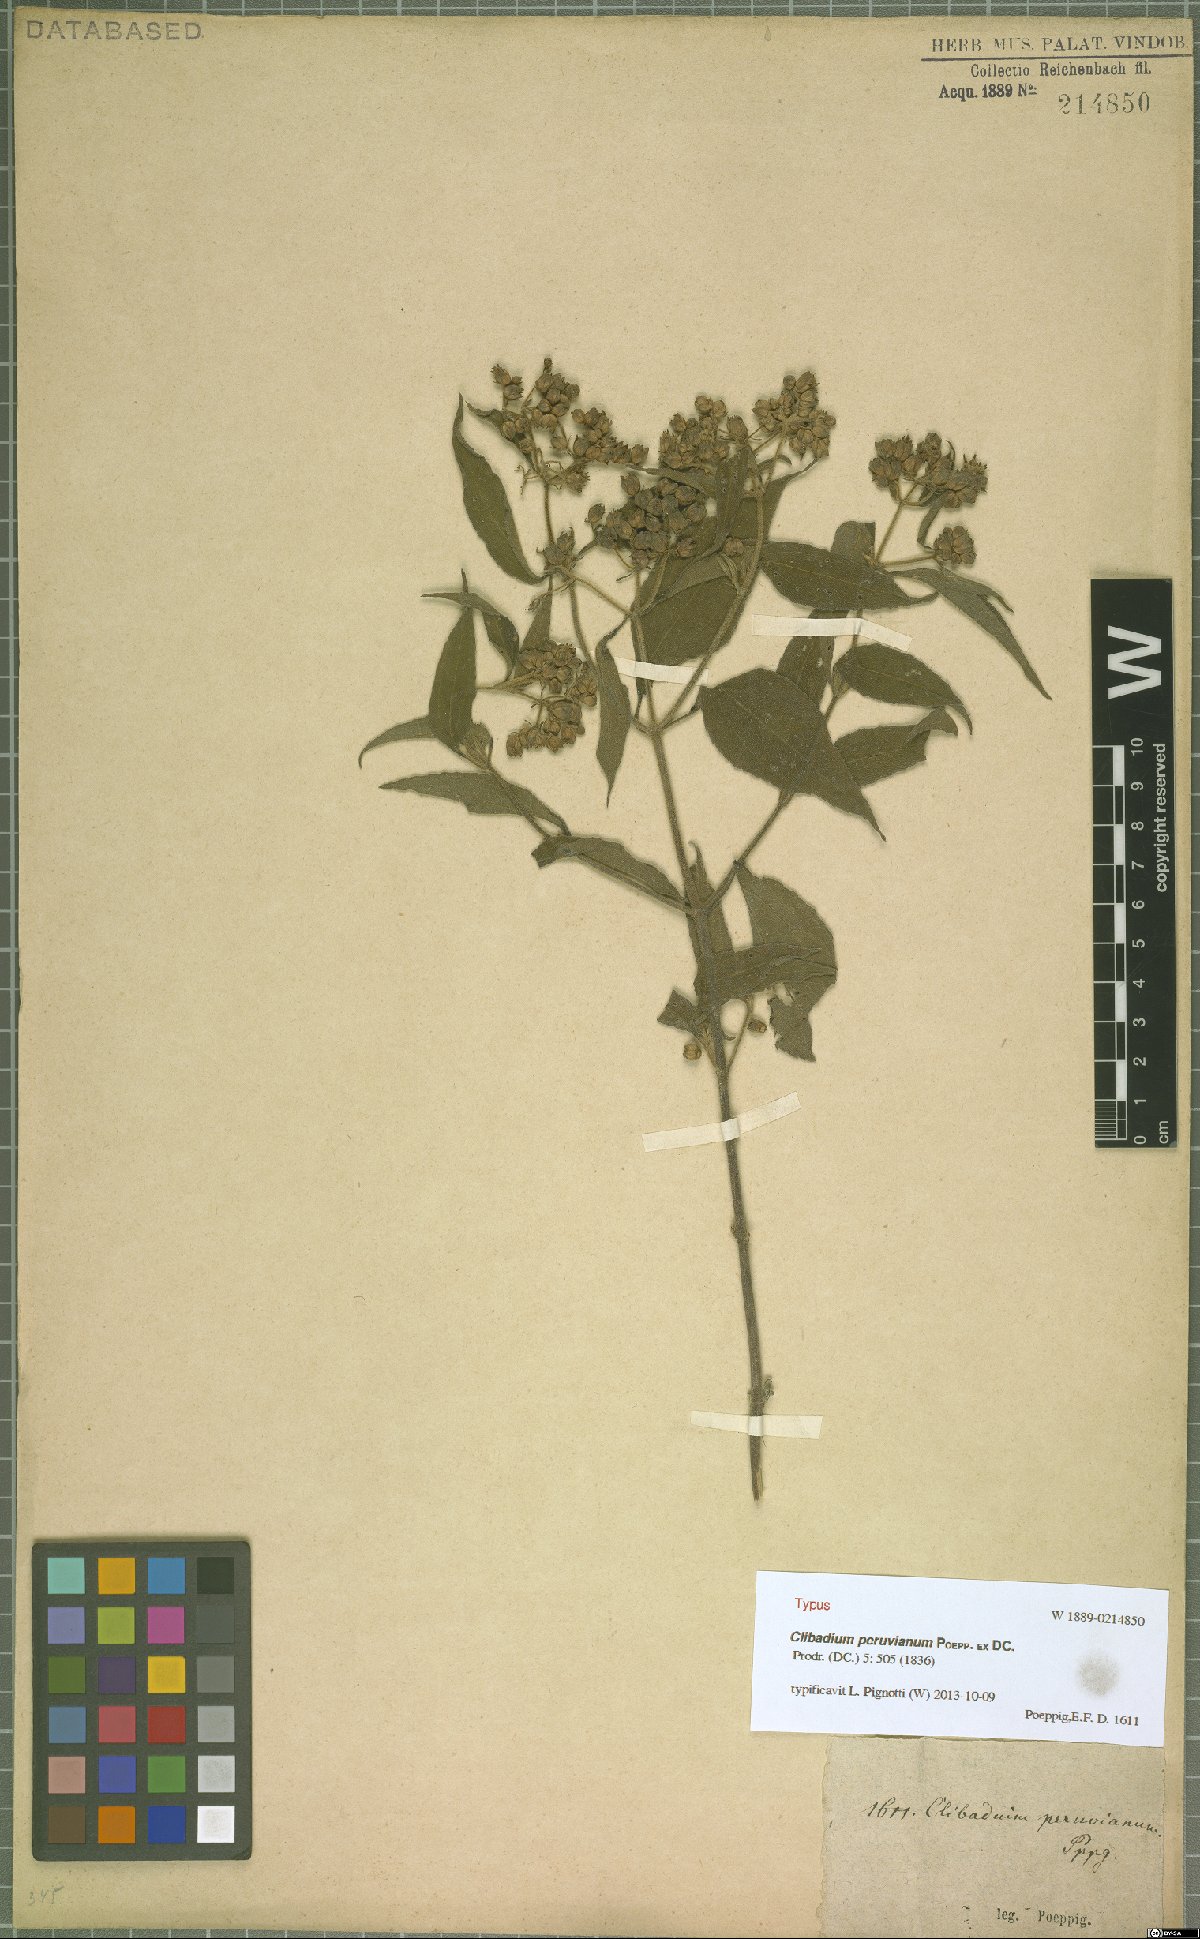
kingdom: Plantae
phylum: Tracheophyta
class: Magnoliopsida
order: Asterales
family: Asteraceae
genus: Clibadium
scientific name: Clibadium peruvianum
